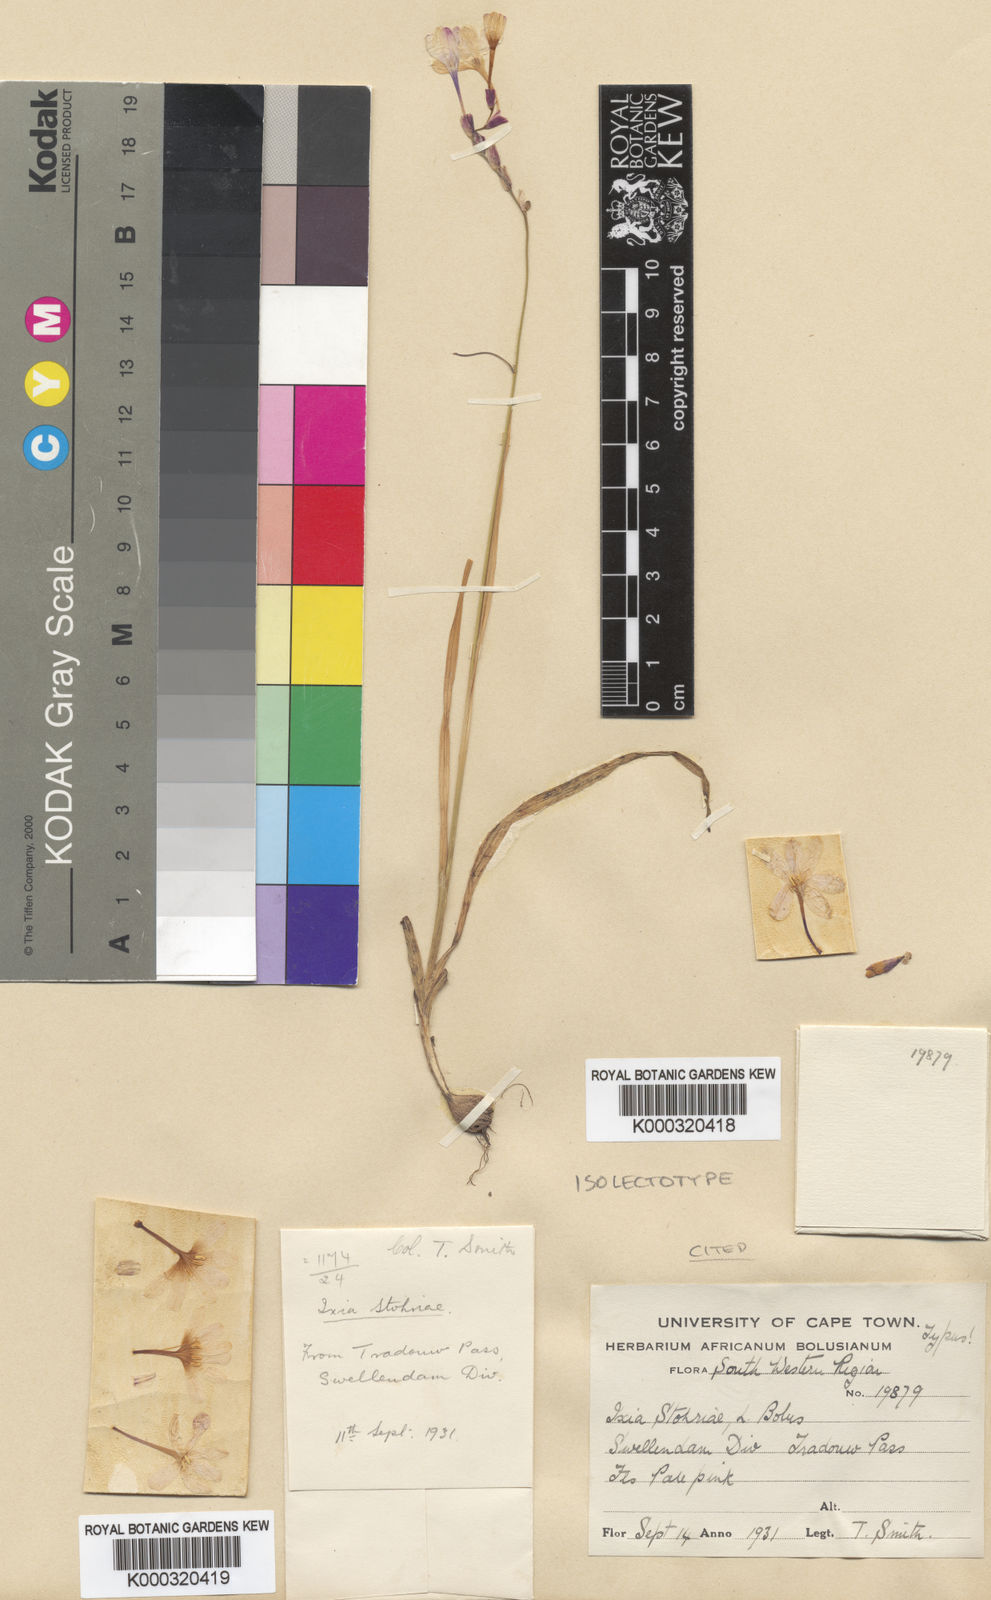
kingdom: Plantae
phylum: Tracheophyta
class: Liliopsida
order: Asparagales
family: Iridaceae
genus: Ixia
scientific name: Ixia stohriae
